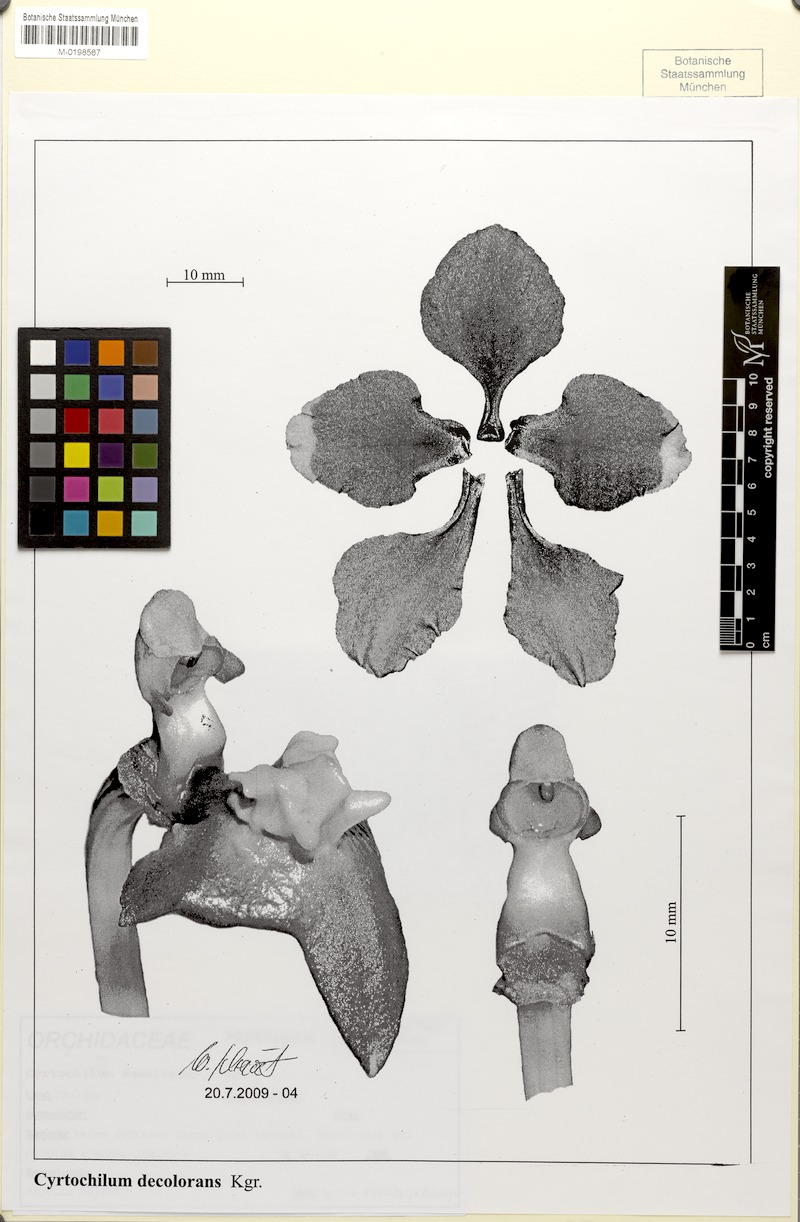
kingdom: Plantae
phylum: Tracheophyta
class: Liliopsida
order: Asparagales
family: Orchidaceae
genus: Cyrtochilum
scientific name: Cyrtochilum decolorans
